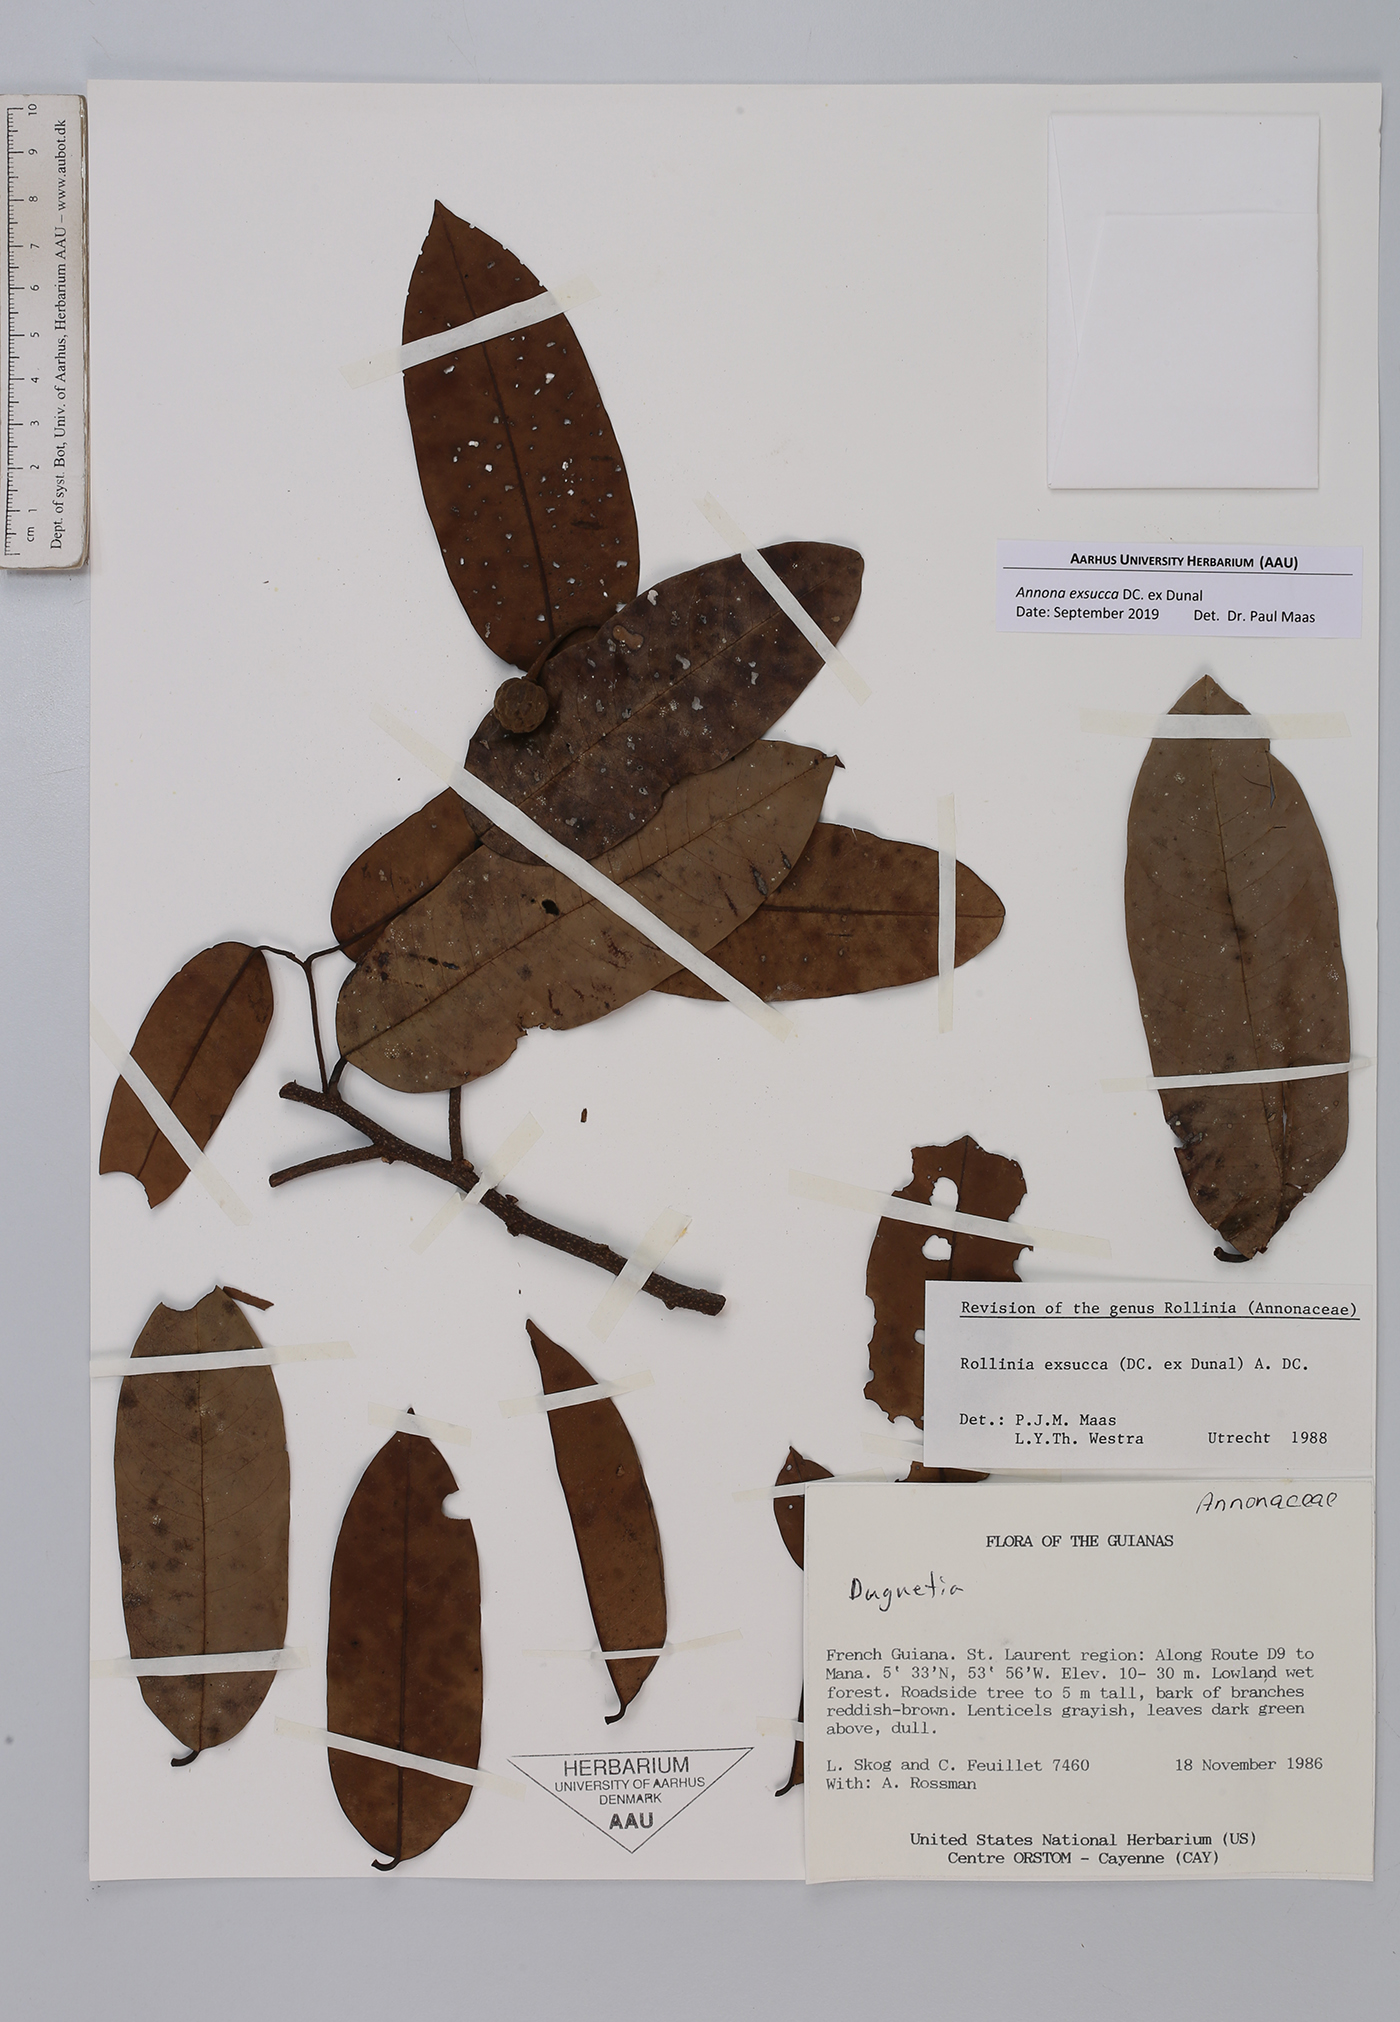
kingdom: Plantae
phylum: Tracheophyta
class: Magnoliopsida
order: Magnoliales
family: Annonaceae
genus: Annona
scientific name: Annona exsucca
